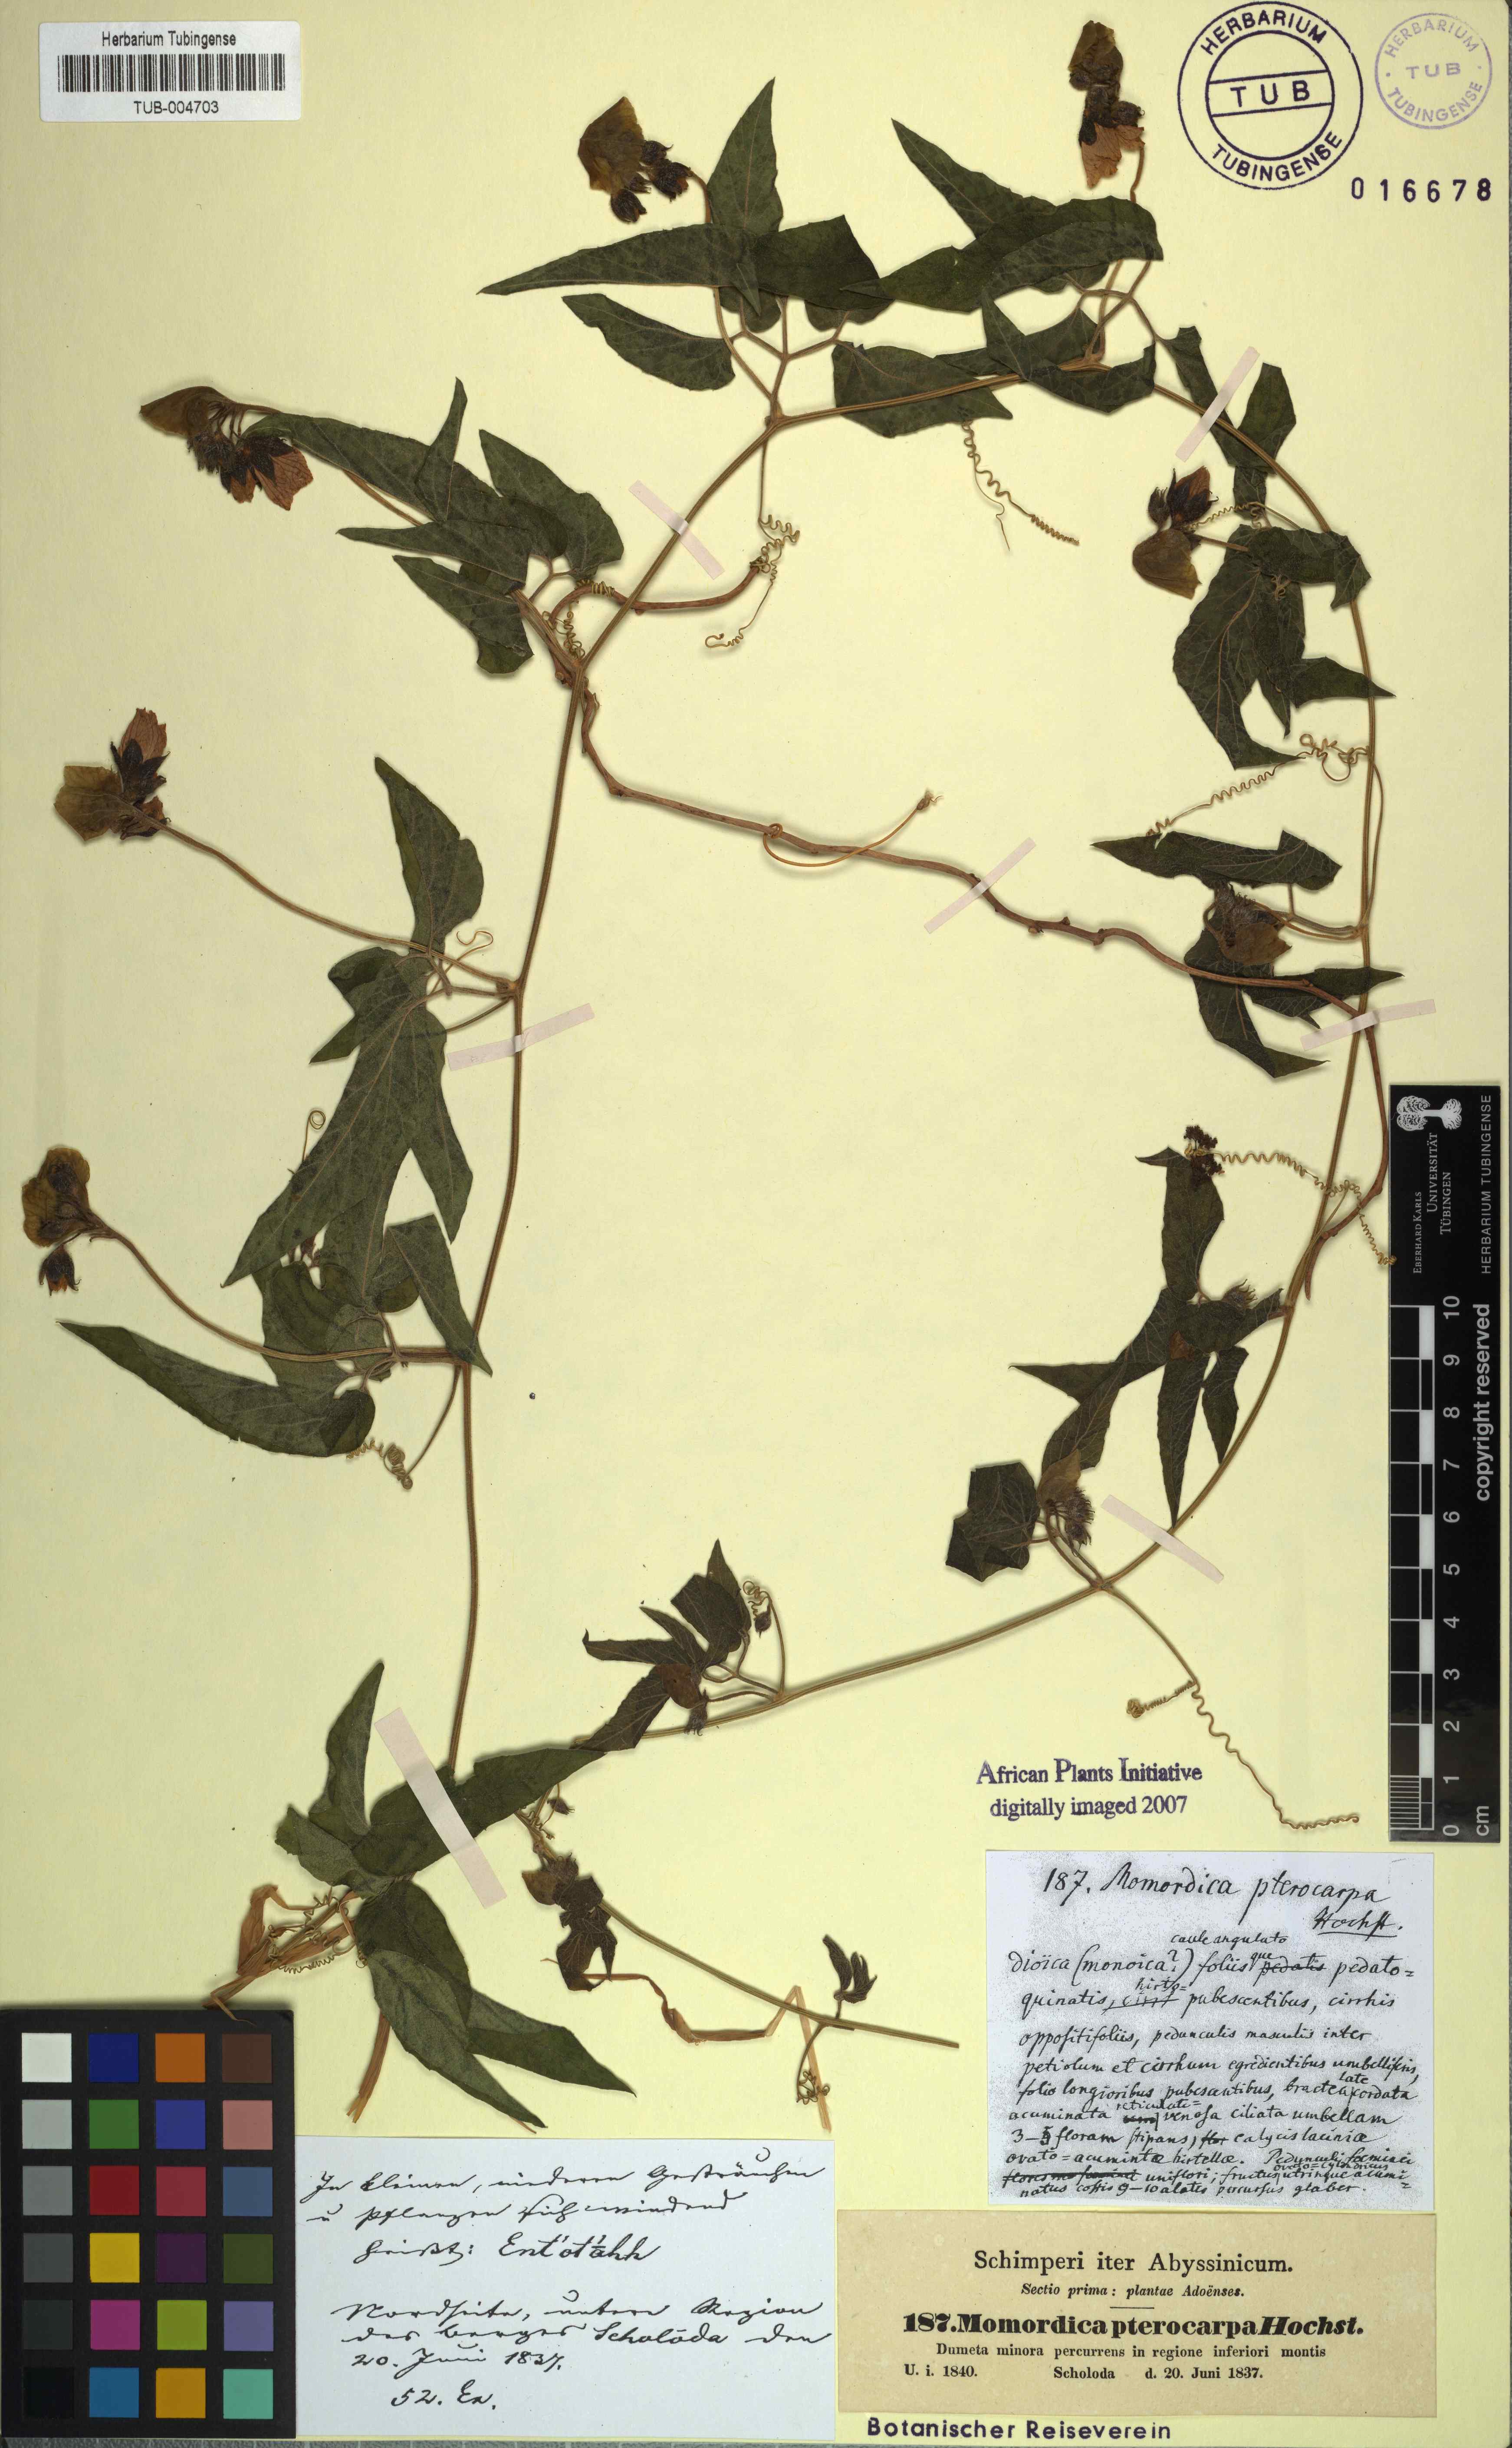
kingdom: Plantae
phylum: Tracheophyta
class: Magnoliopsida
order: Cucurbitales
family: Cucurbitaceae
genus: Momordica
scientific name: Momordica pterocarpa
